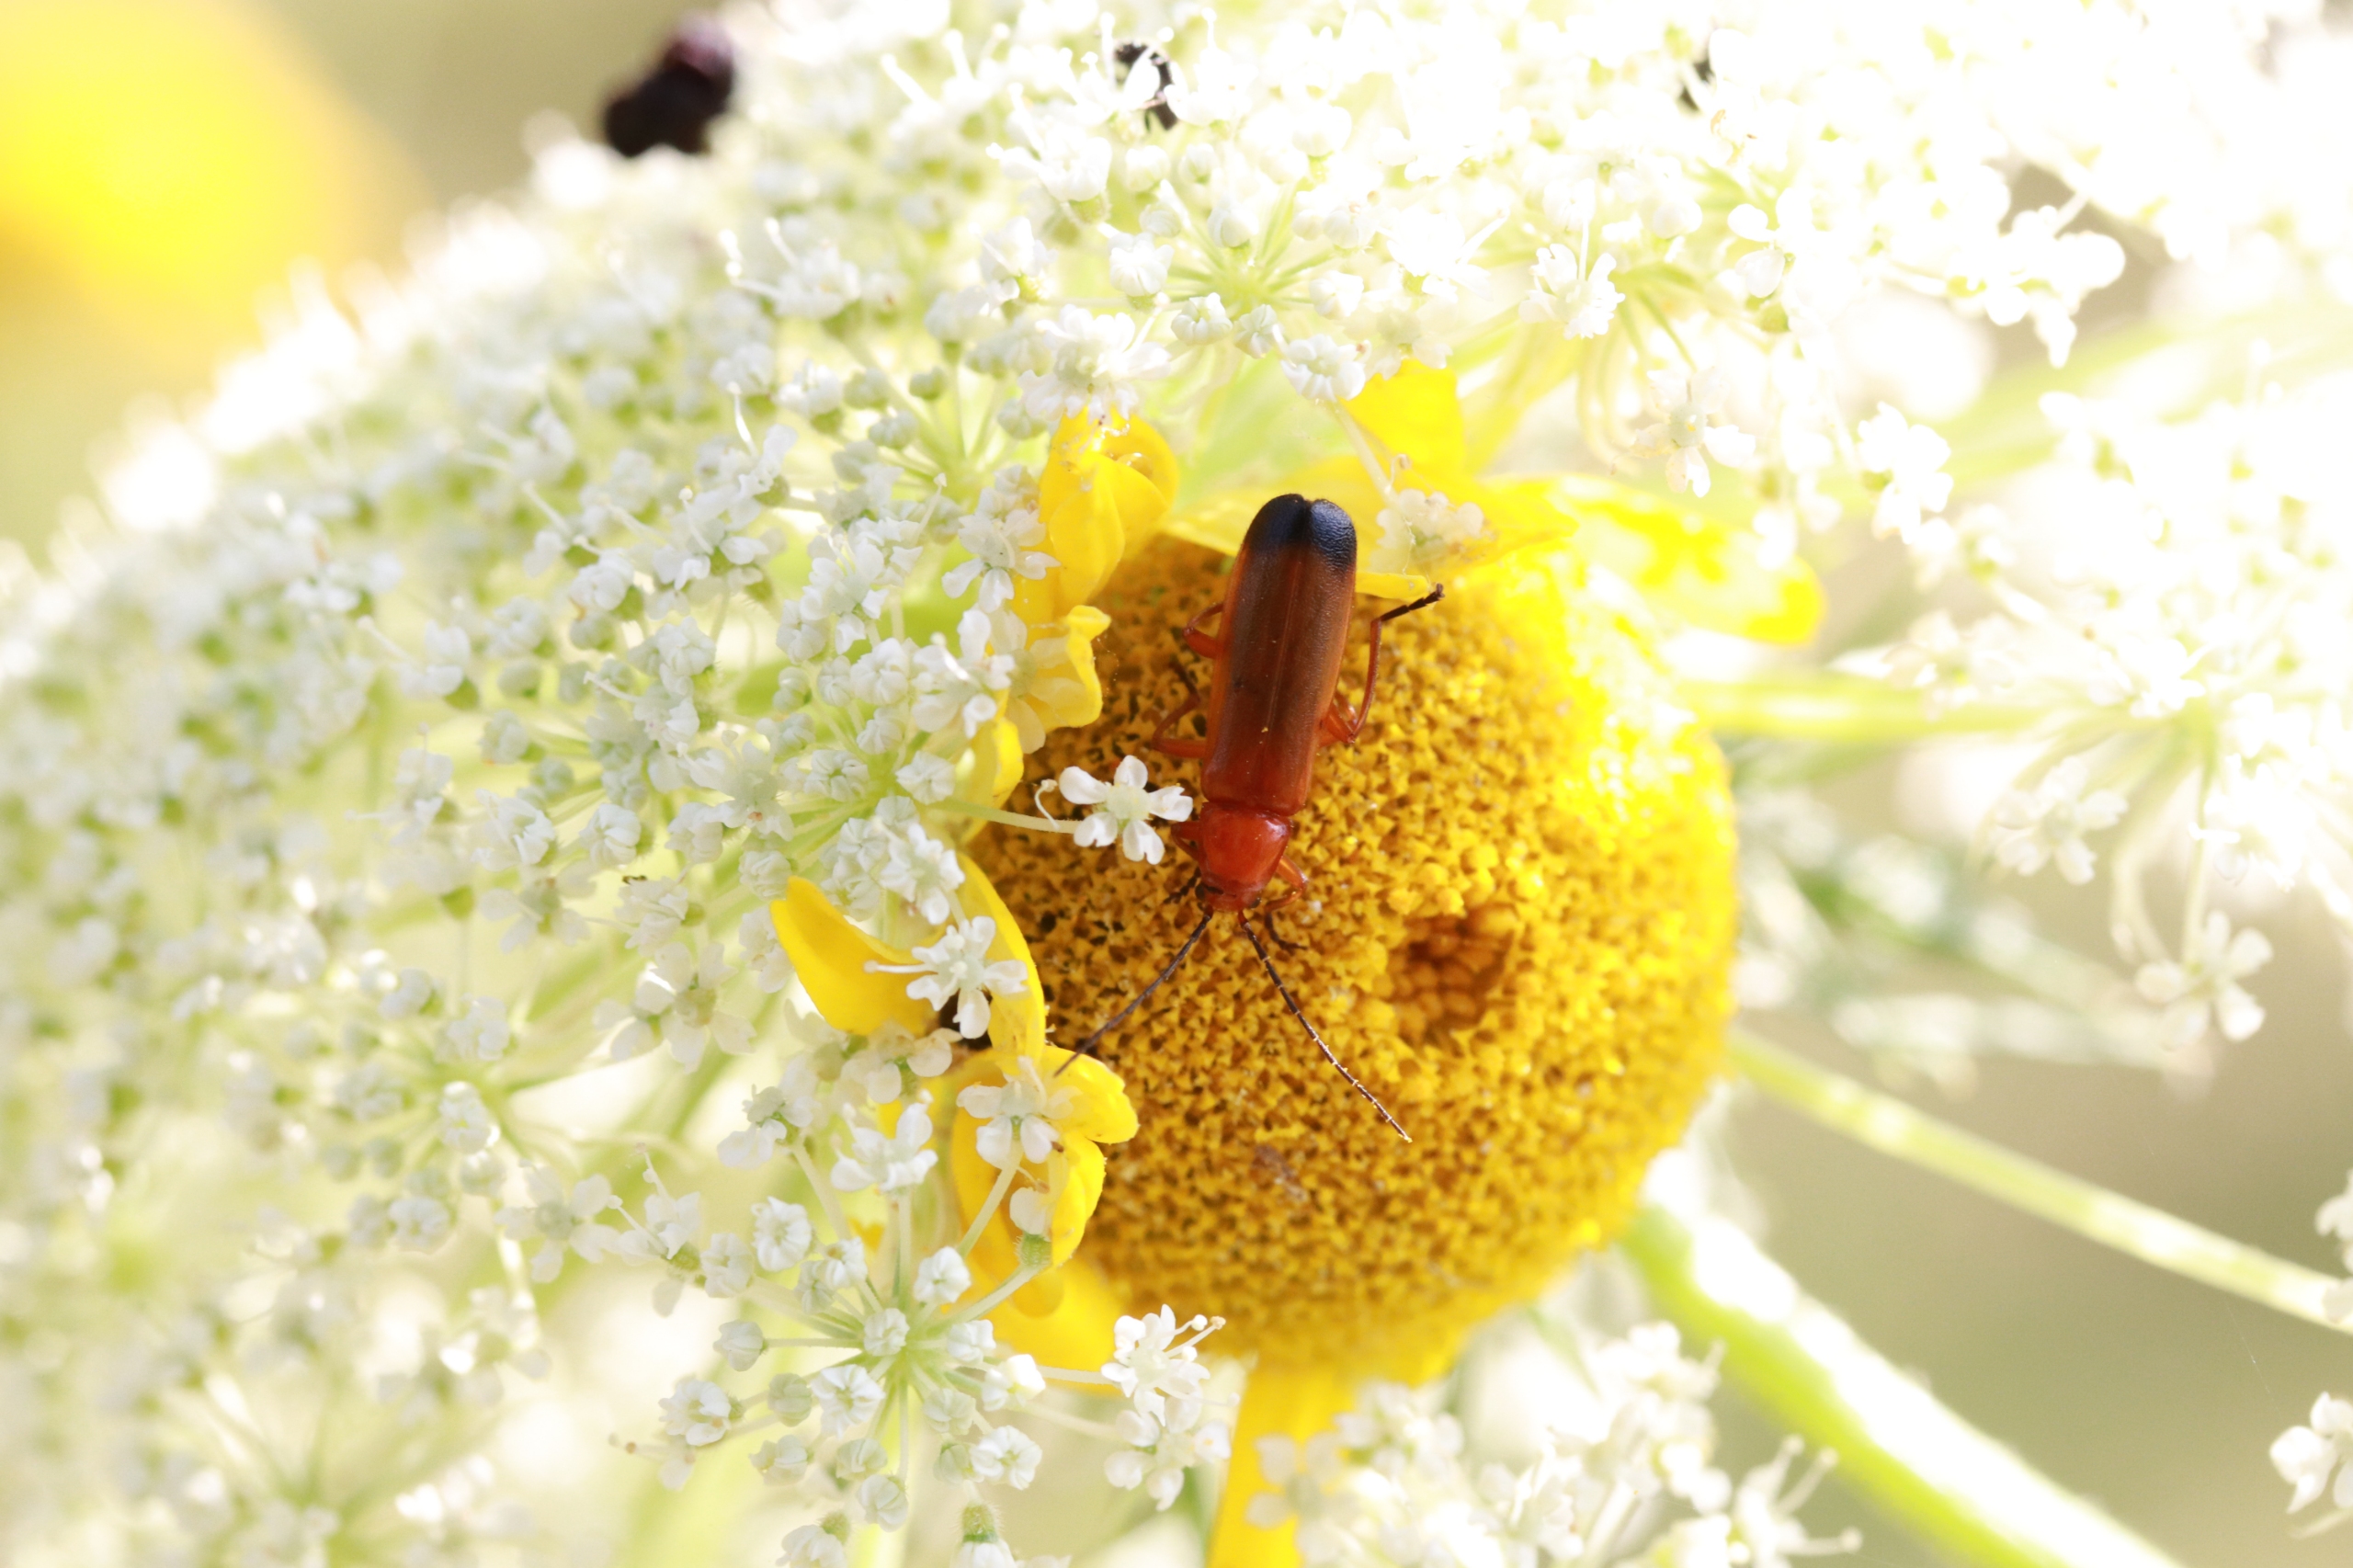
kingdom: Animalia
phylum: Arthropoda
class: Insecta
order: Coleoptera
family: Cantharidae
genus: Rhagonycha
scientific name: Rhagonycha fulva
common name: Præstebille
